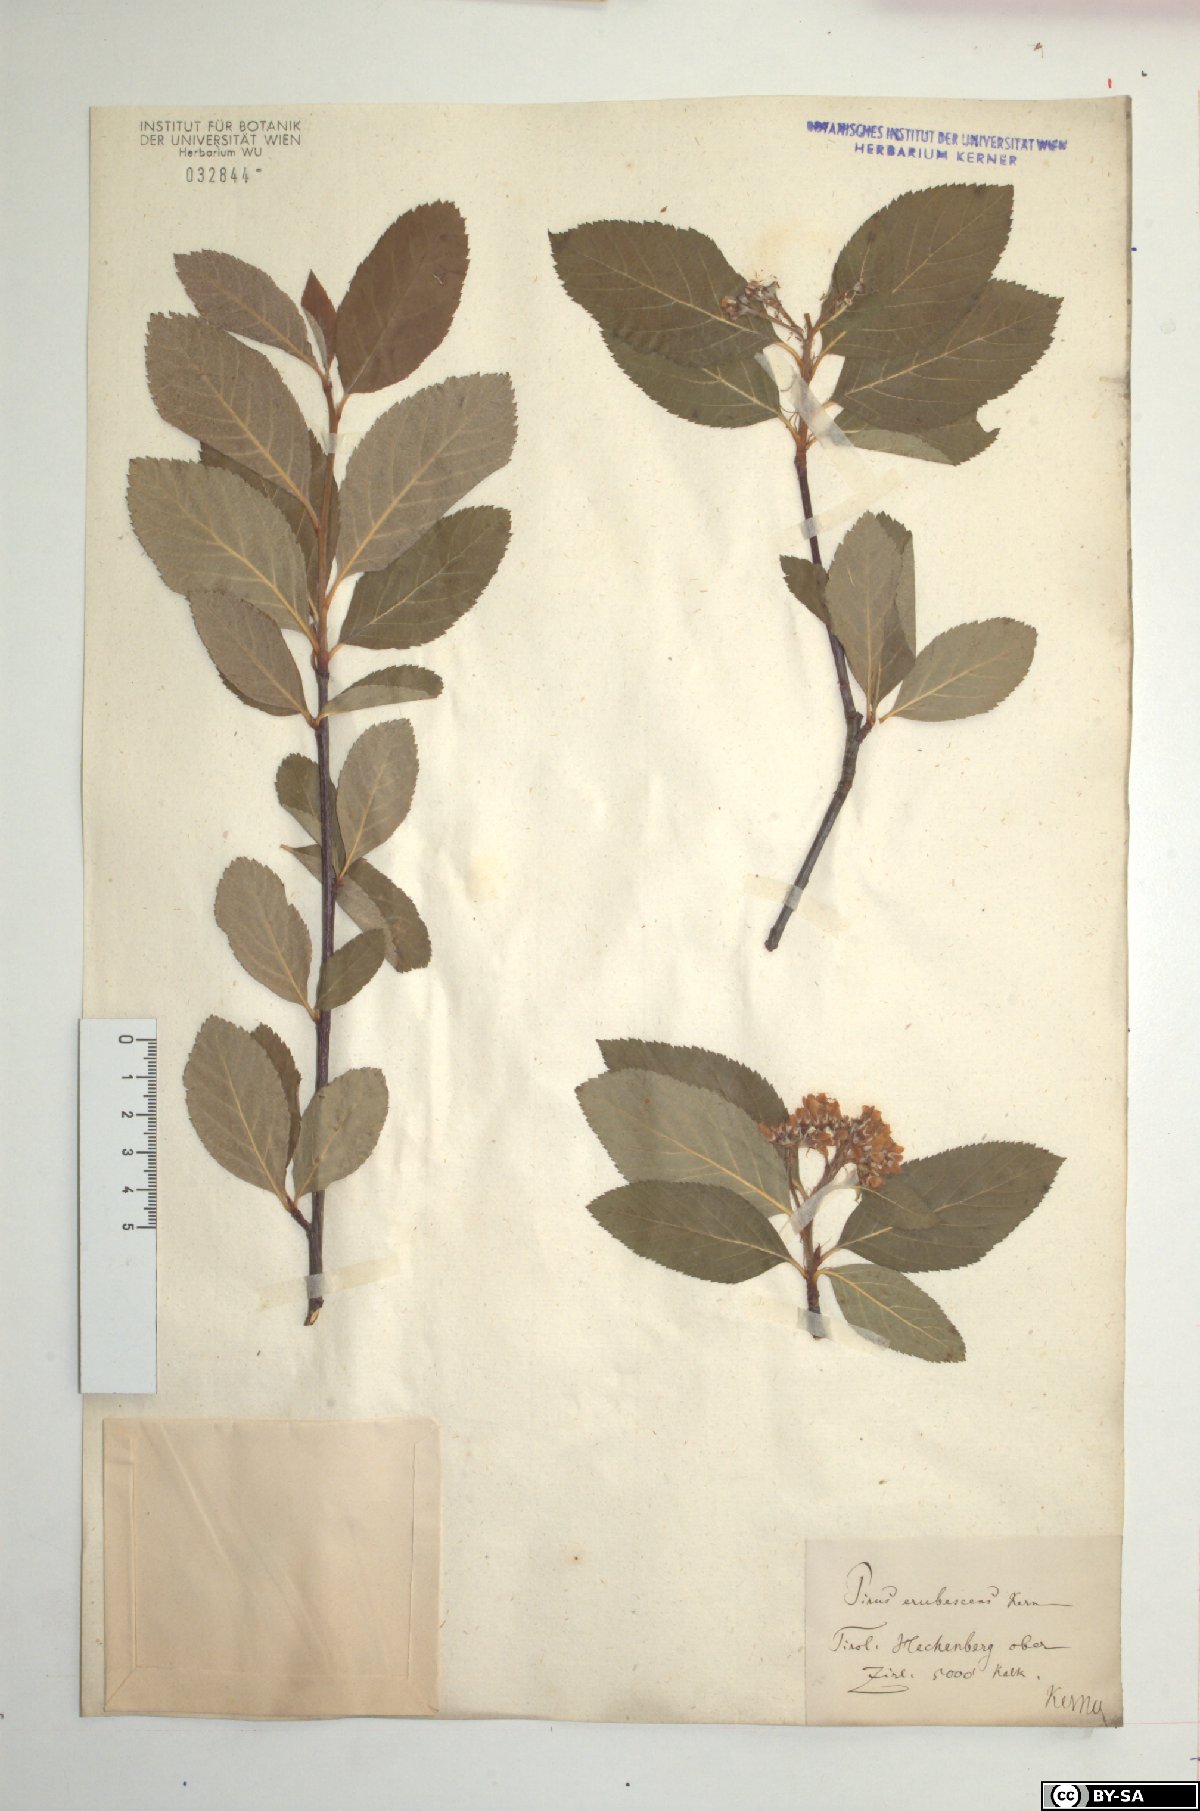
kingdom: Plantae
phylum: Tracheophyta
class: Magnoliopsida
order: Rosales
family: Rosaceae
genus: Majovskya
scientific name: Majovskya sudetica
